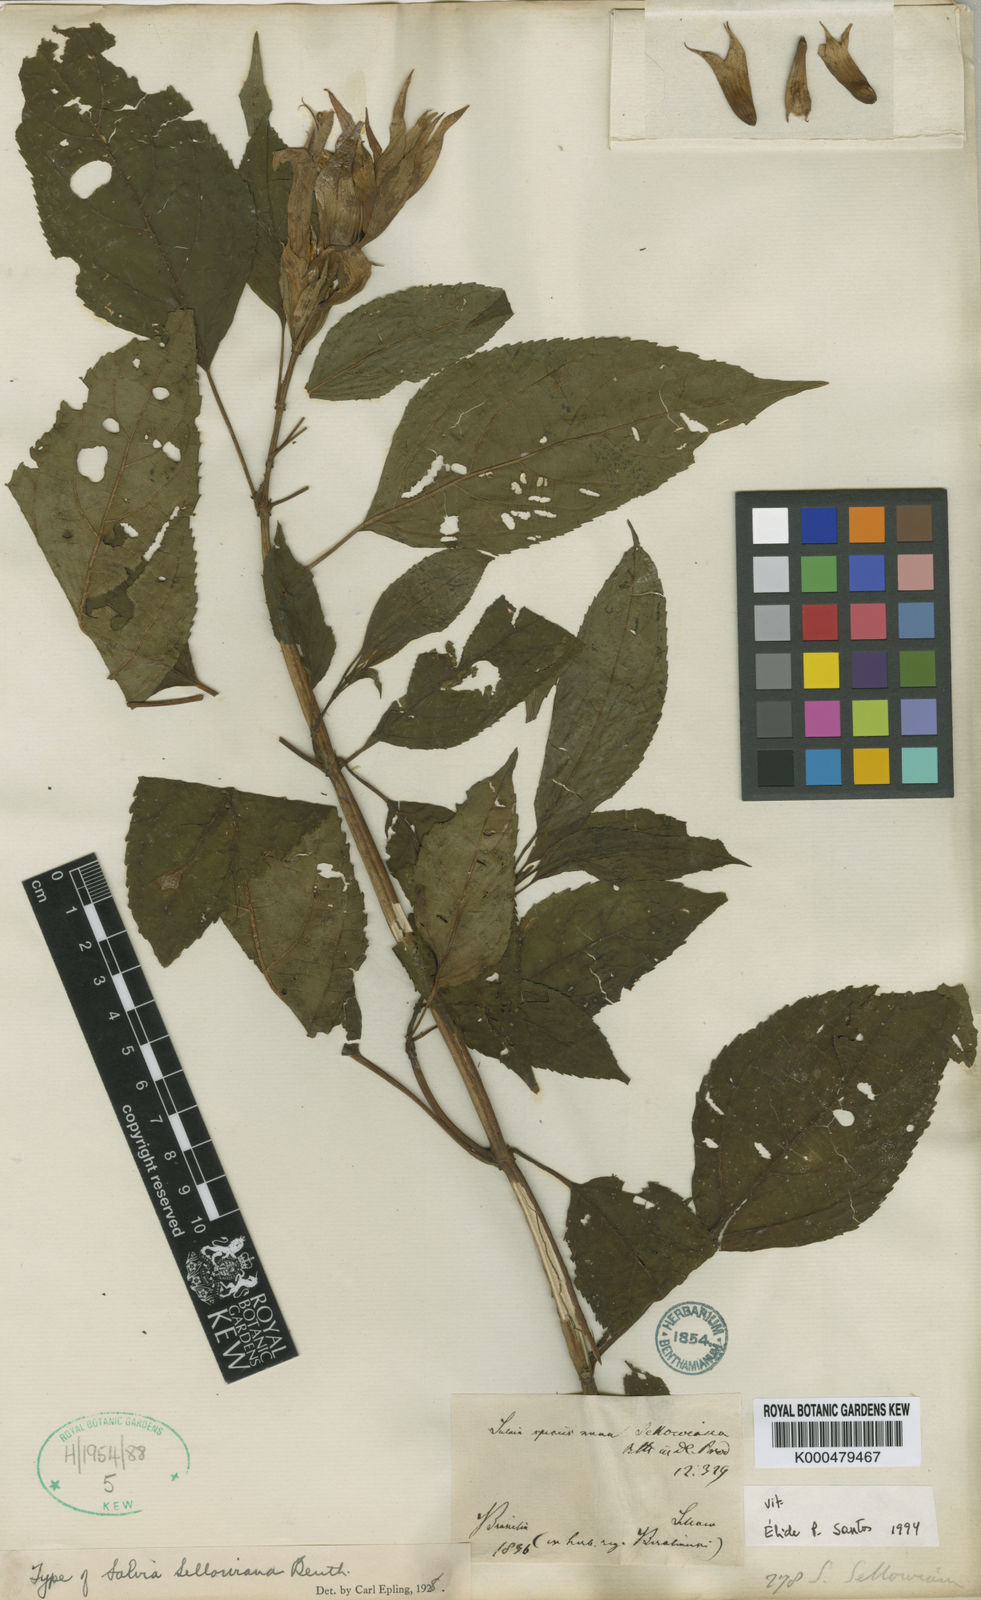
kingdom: Plantae
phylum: Tracheophyta
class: Magnoliopsida
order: Lamiales
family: Lamiaceae
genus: Salvia
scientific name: Salvia sellowiana
